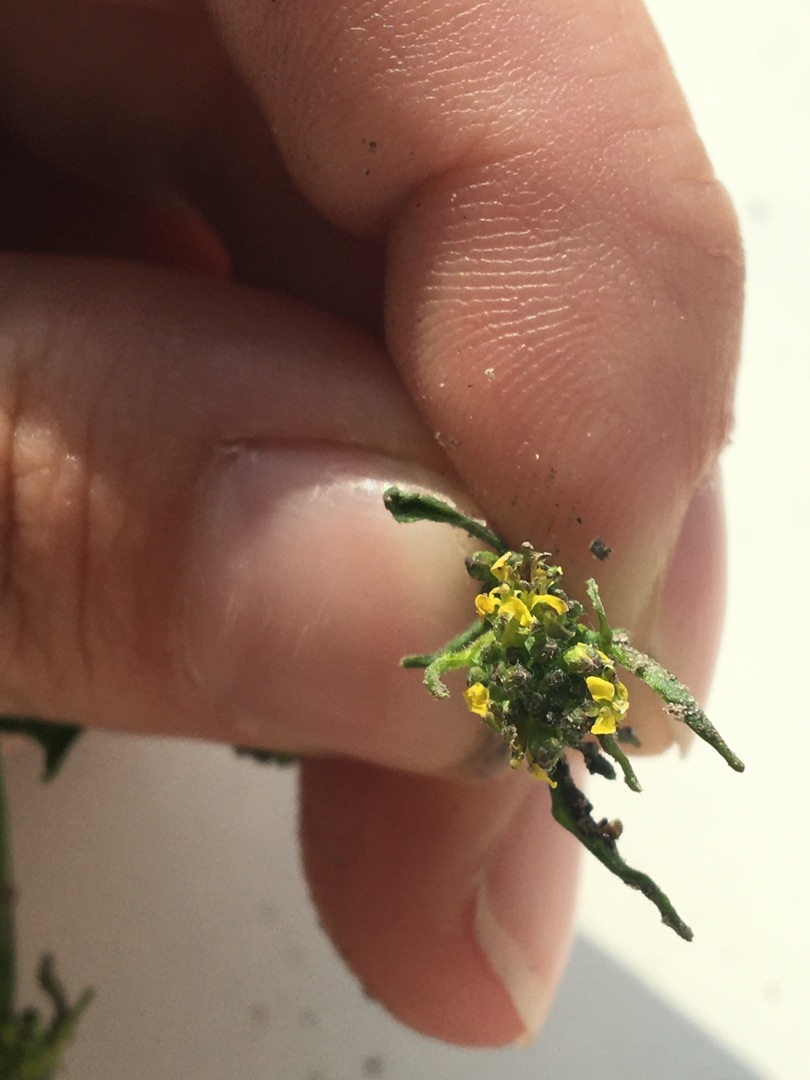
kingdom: Plantae
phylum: Tracheophyta
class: Magnoliopsida
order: Brassicales
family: Brassicaceae
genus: Sisymbrium
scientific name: Sisymbrium officinale
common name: Rank vejsennep
